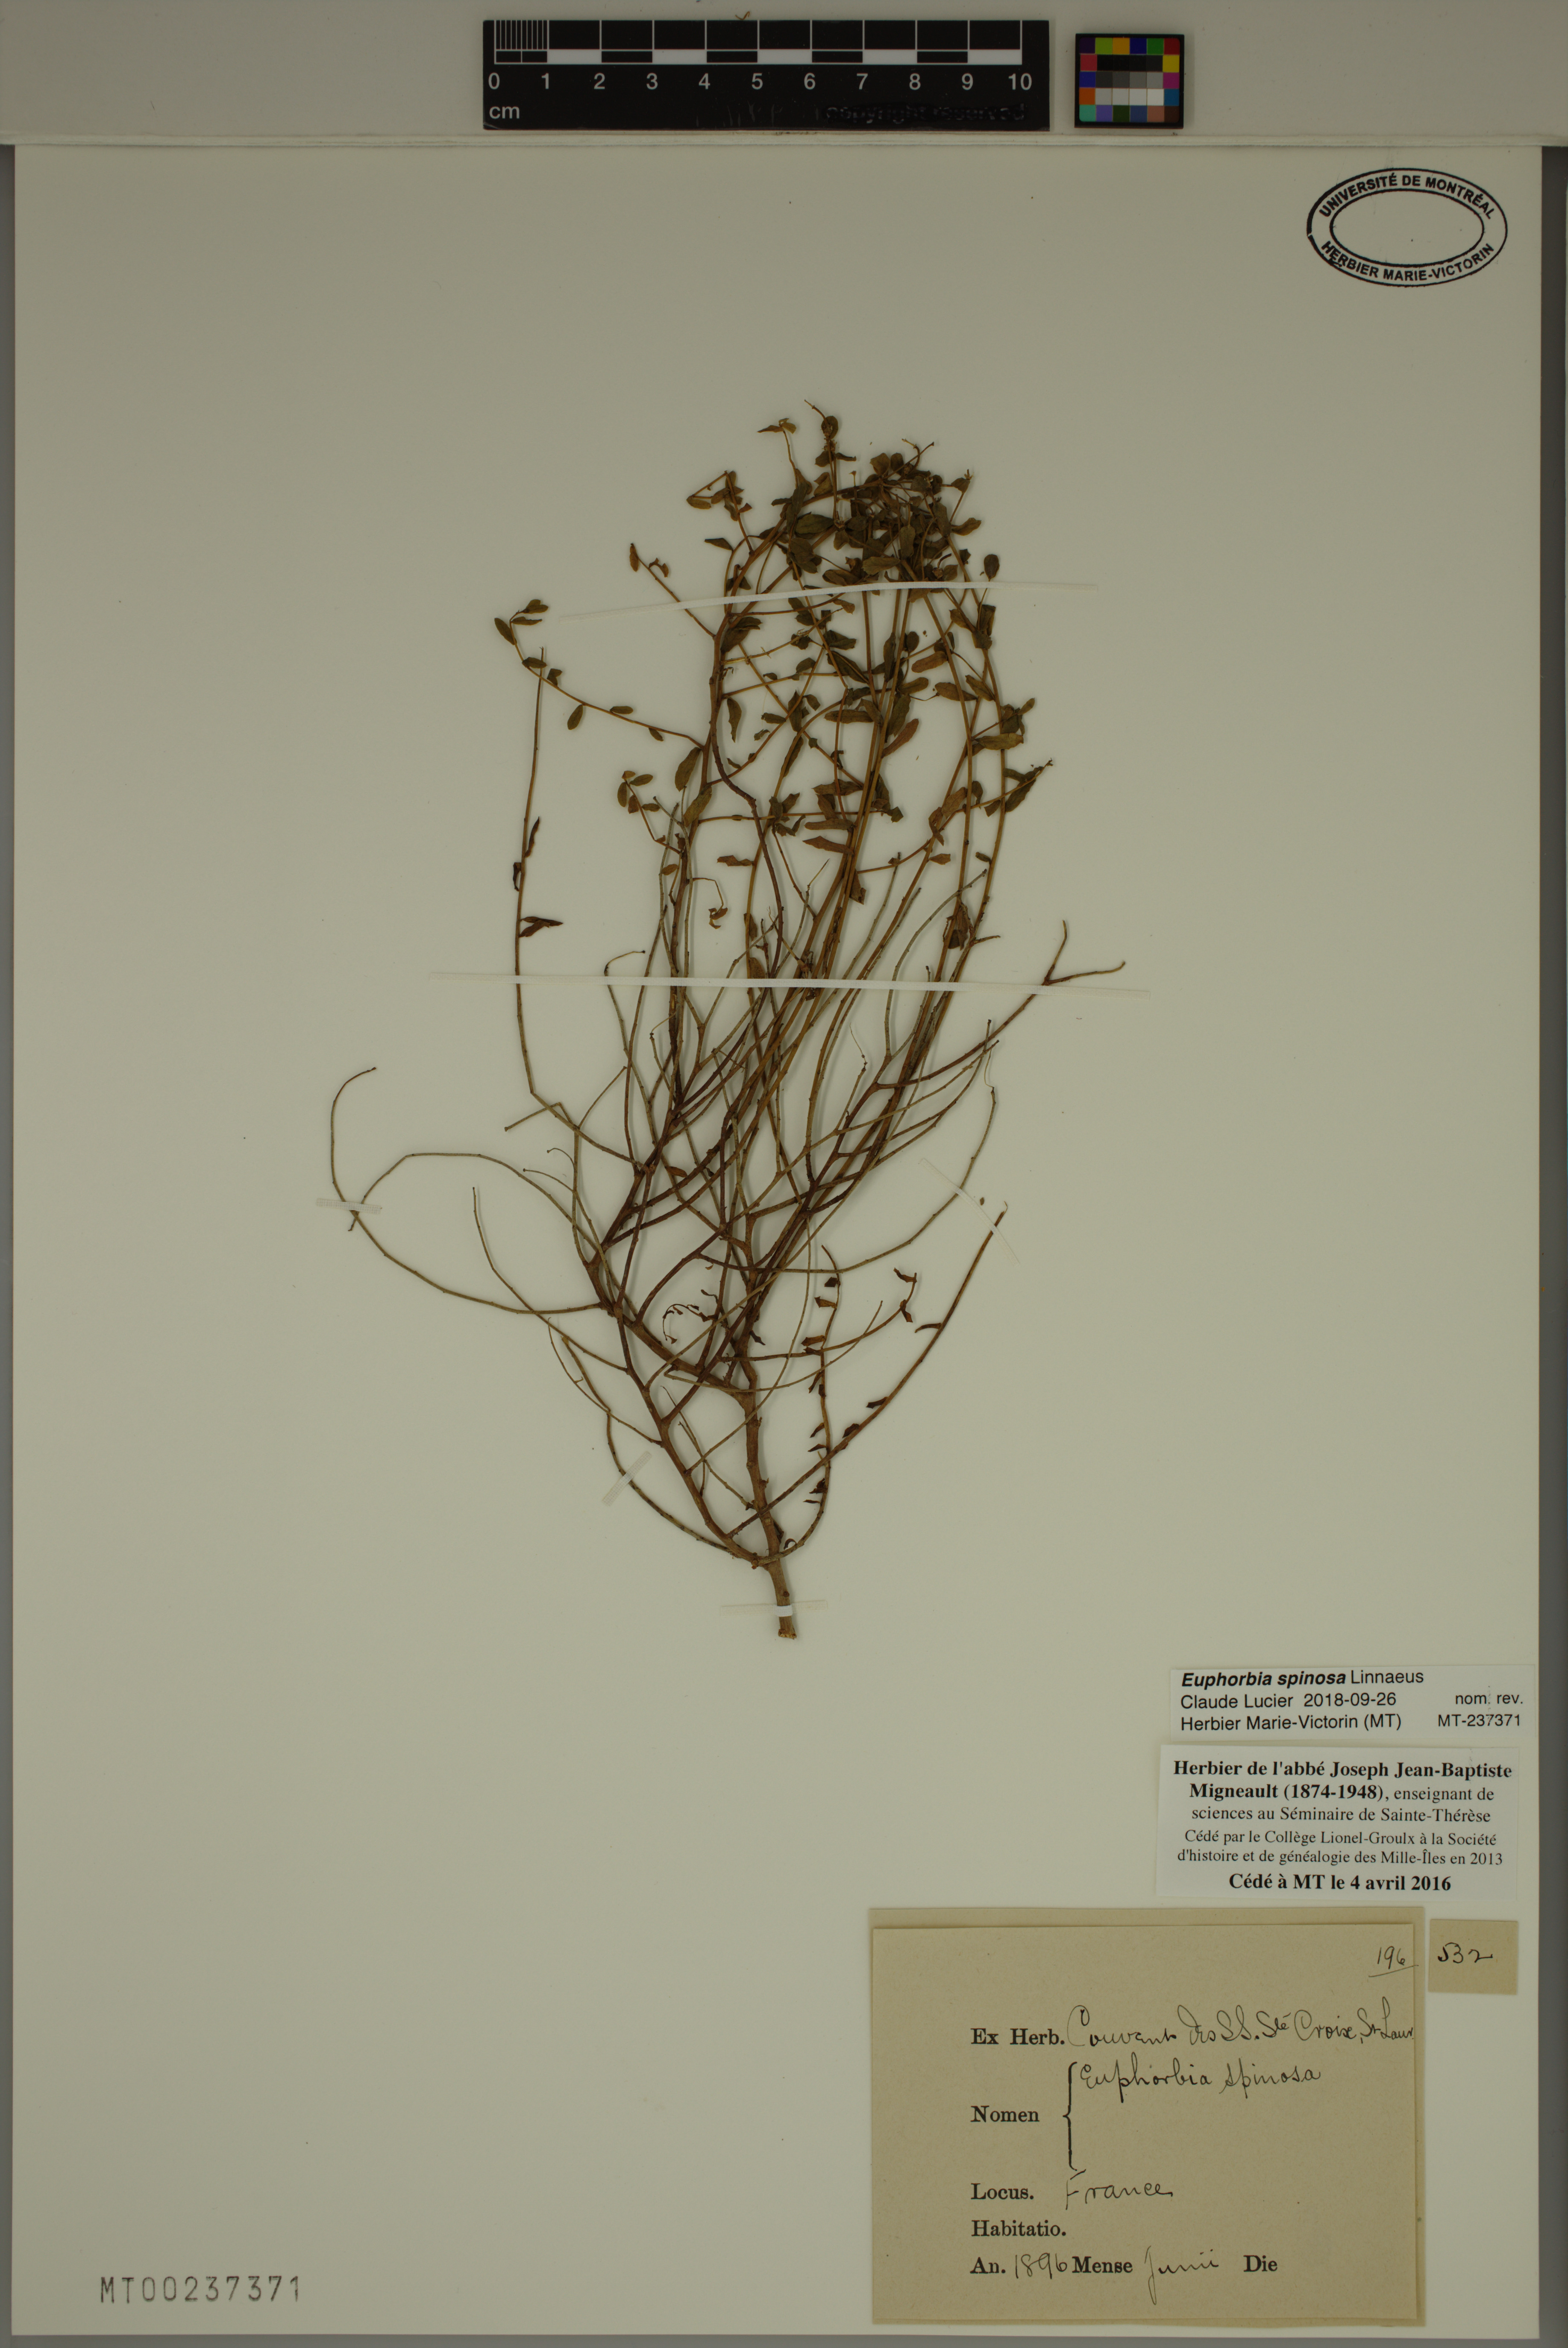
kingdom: Plantae
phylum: Tracheophyta
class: Magnoliopsida
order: Malpighiales
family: Euphorbiaceae
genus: Euphorbia
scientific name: Euphorbia spinosa
